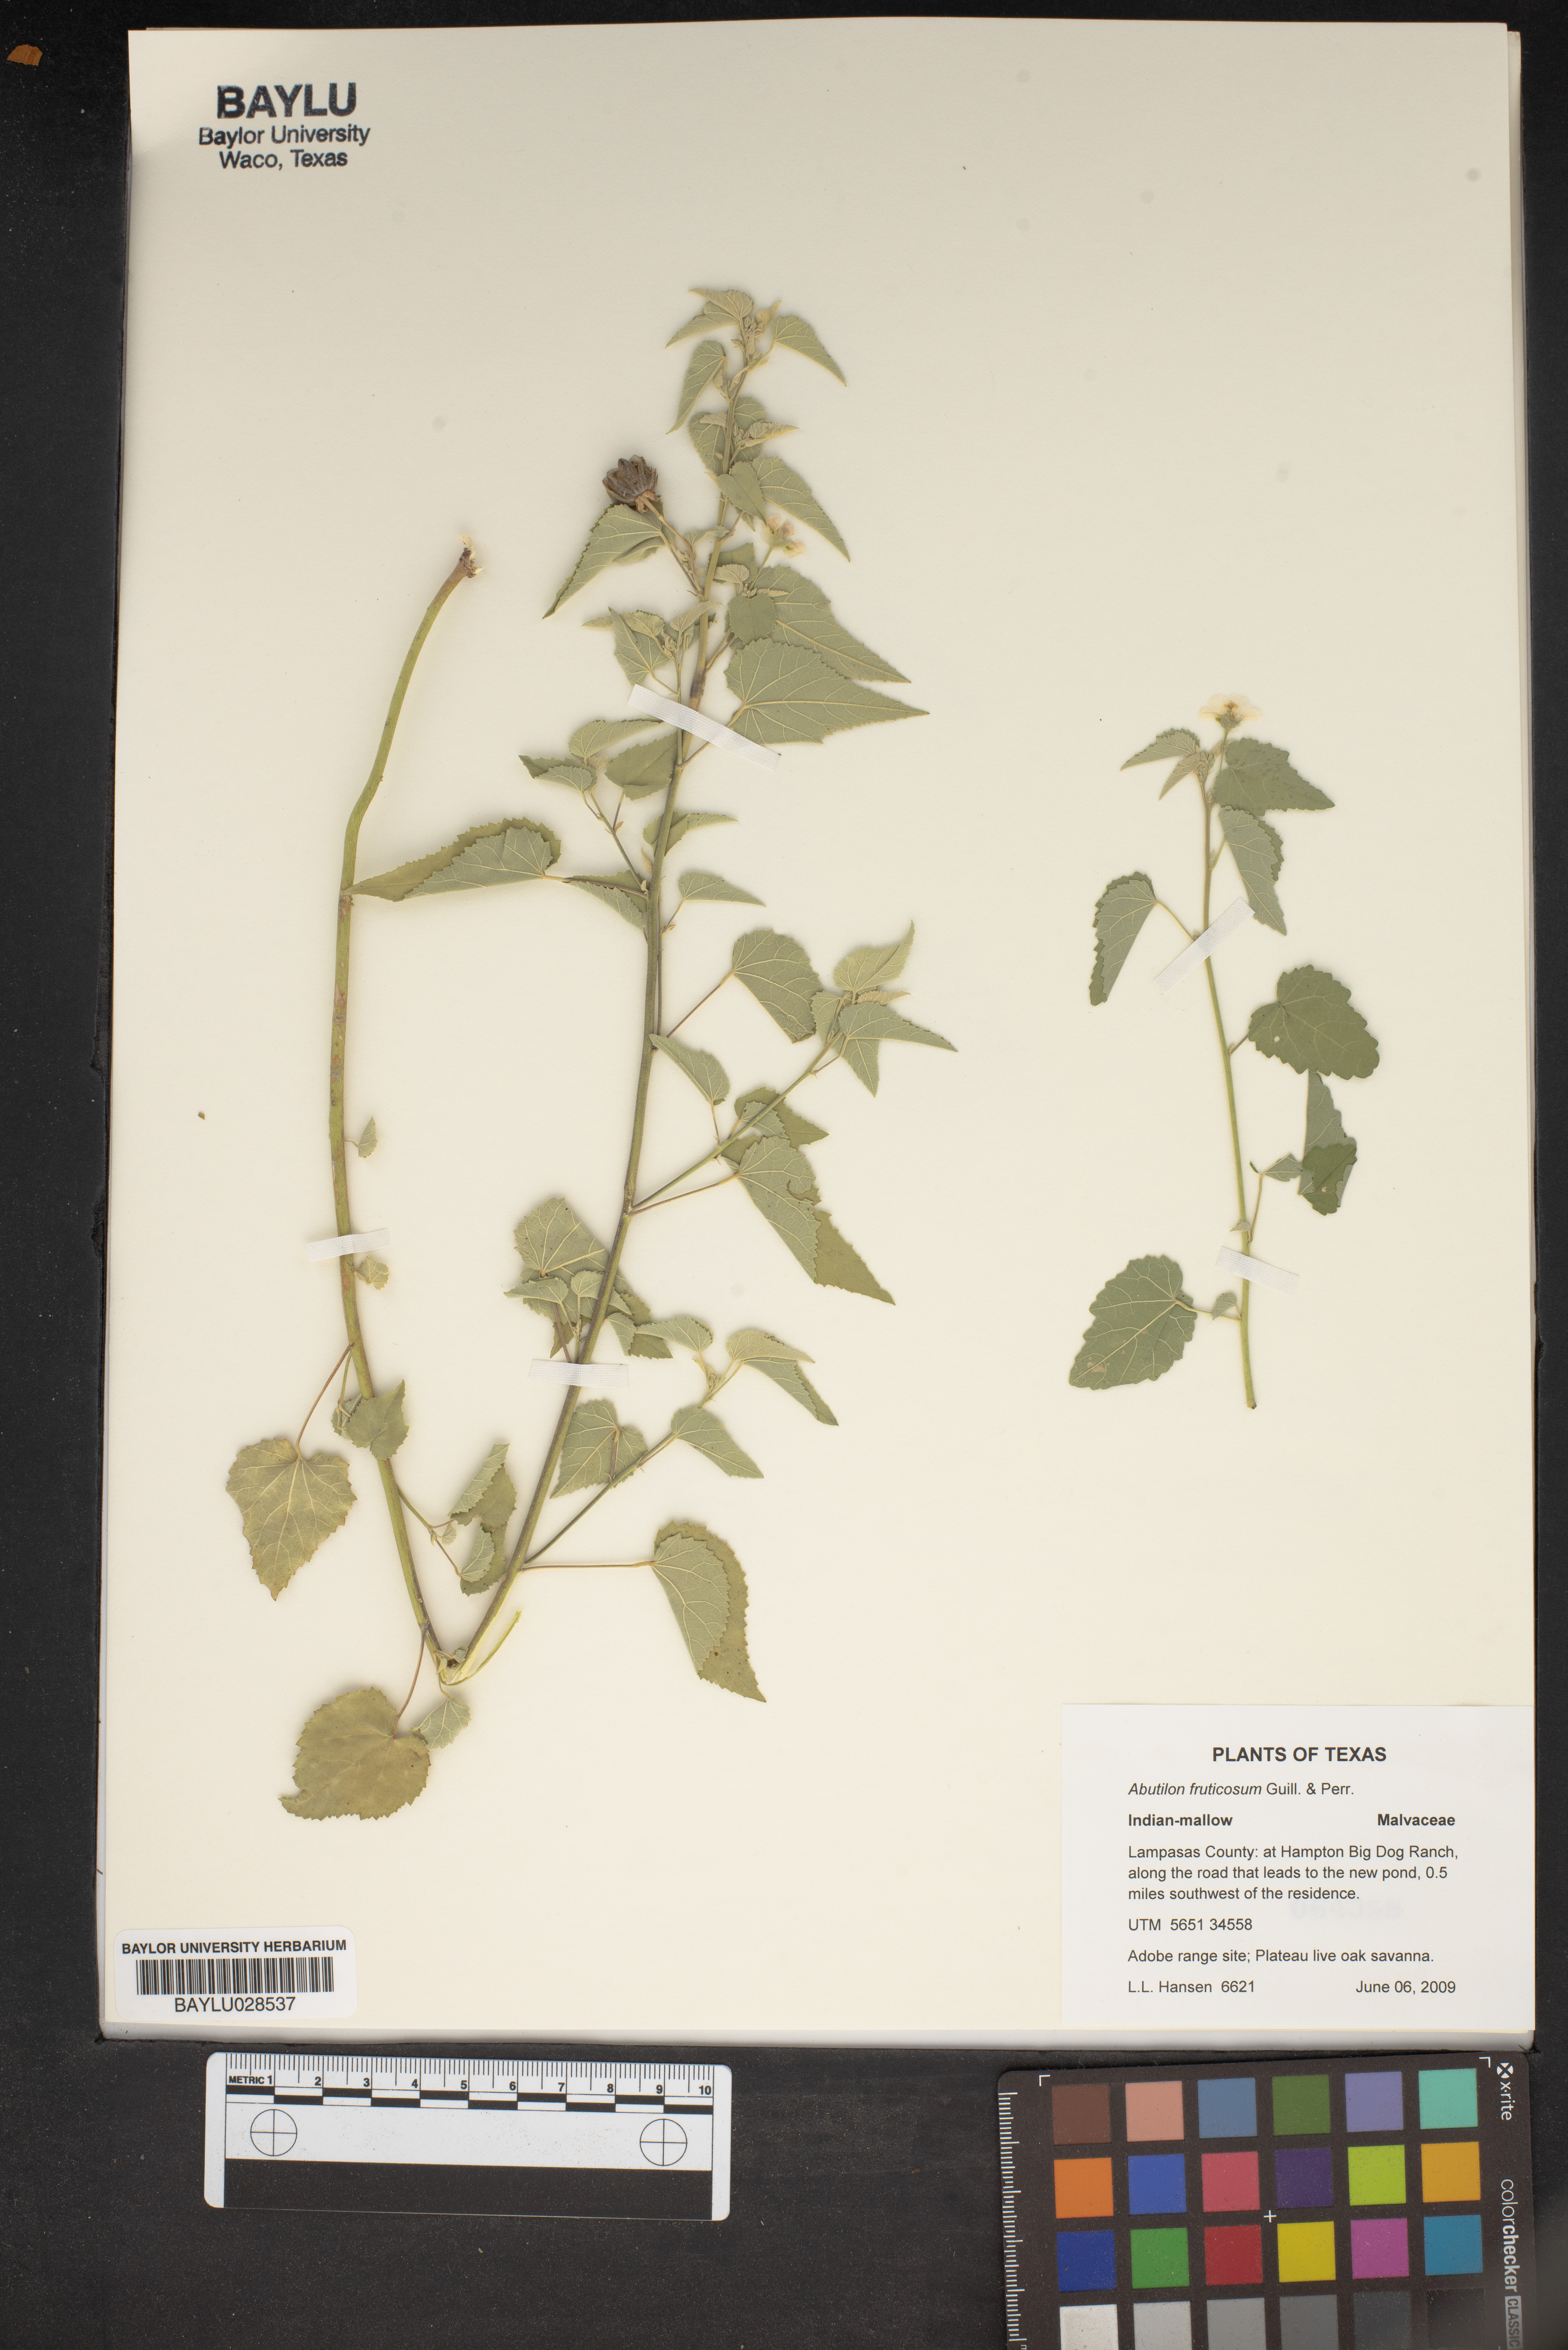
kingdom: Plantae
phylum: Tracheophyta
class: Magnoliopsida
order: Malvales
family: Malvaceae
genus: Abutilon
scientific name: Abutilon fruticosum
